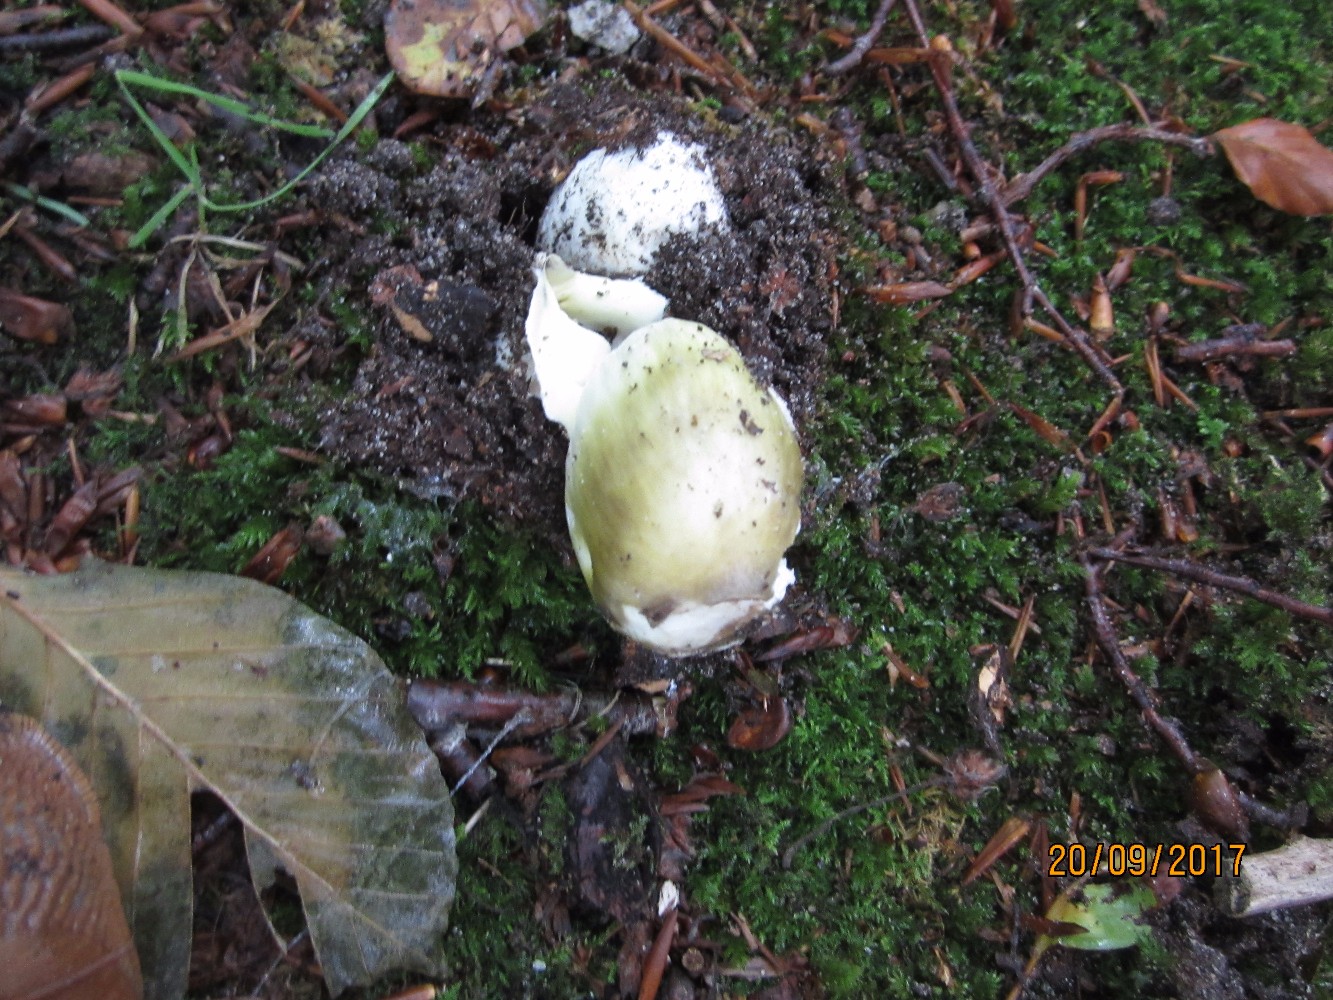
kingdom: Fungi
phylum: Basidiomycota
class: Agaricomycetes
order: Agaricales
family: Amanitaceae
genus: Amanita
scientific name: Amanita phalloides
